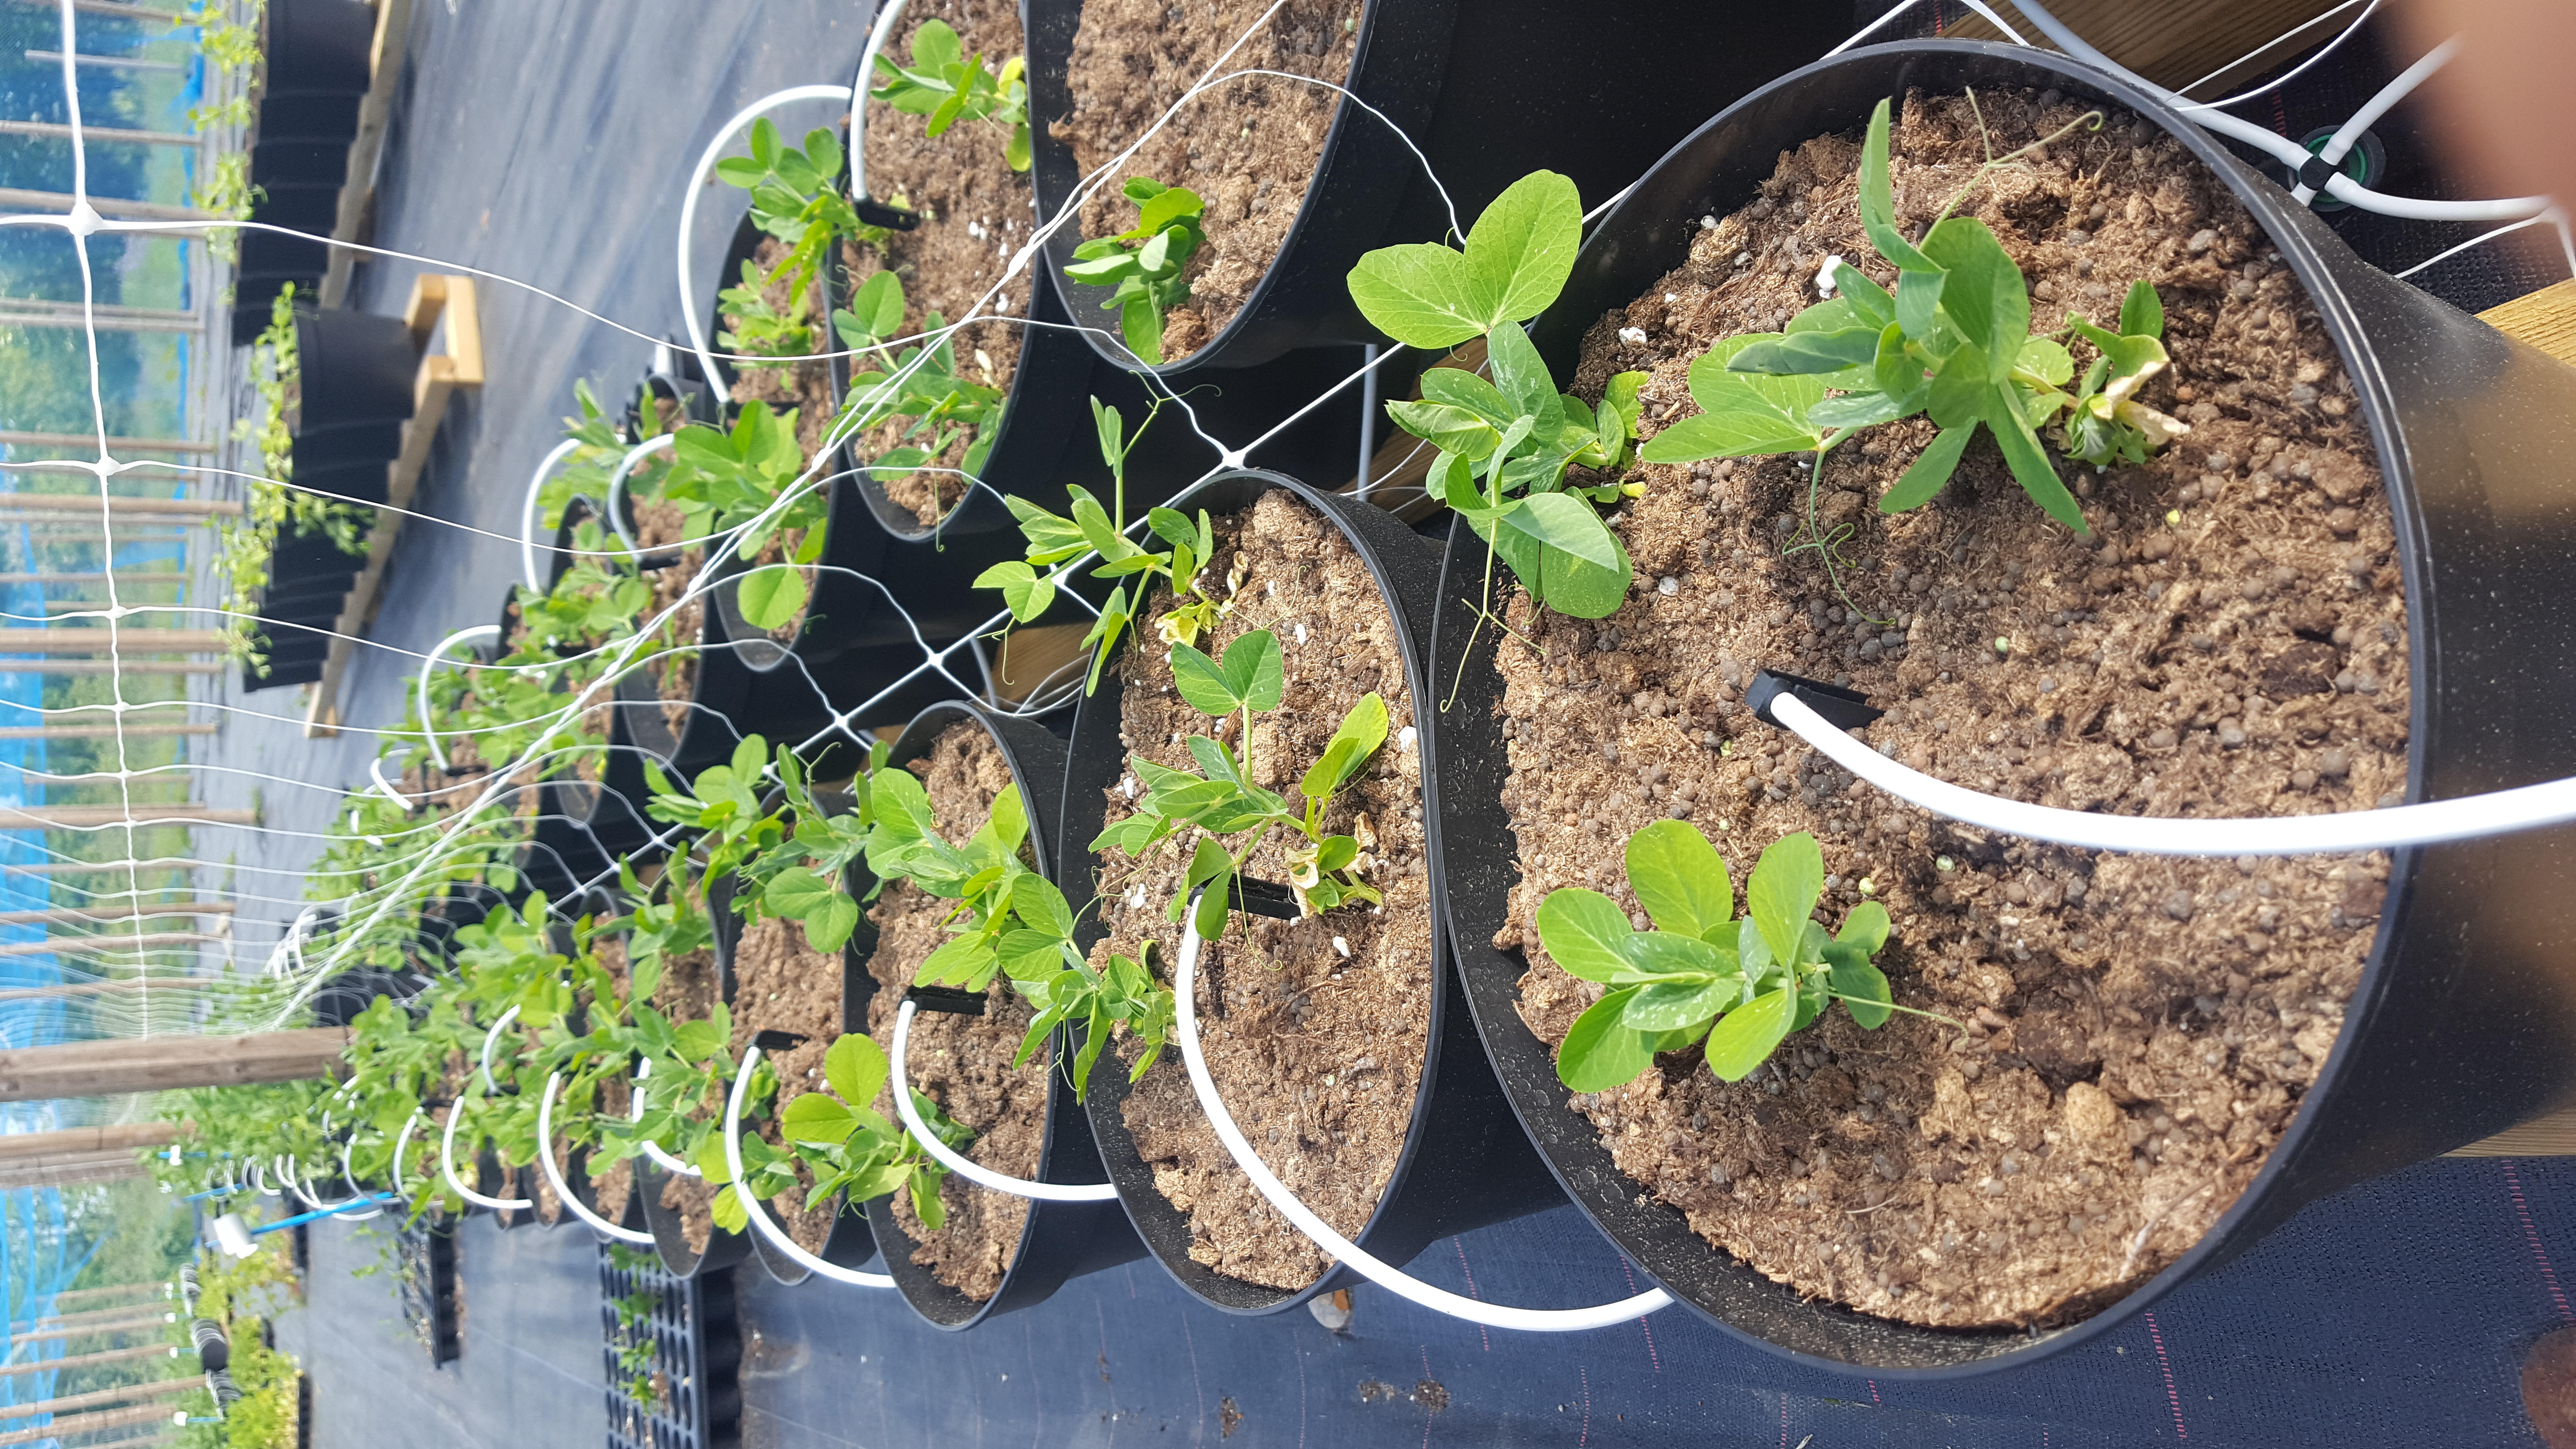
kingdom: Plantae
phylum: Tracheophyta
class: Magnoliopsida
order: Fabales
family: Fabaceae
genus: Lathyrus
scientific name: Lathyrus oleraceus
